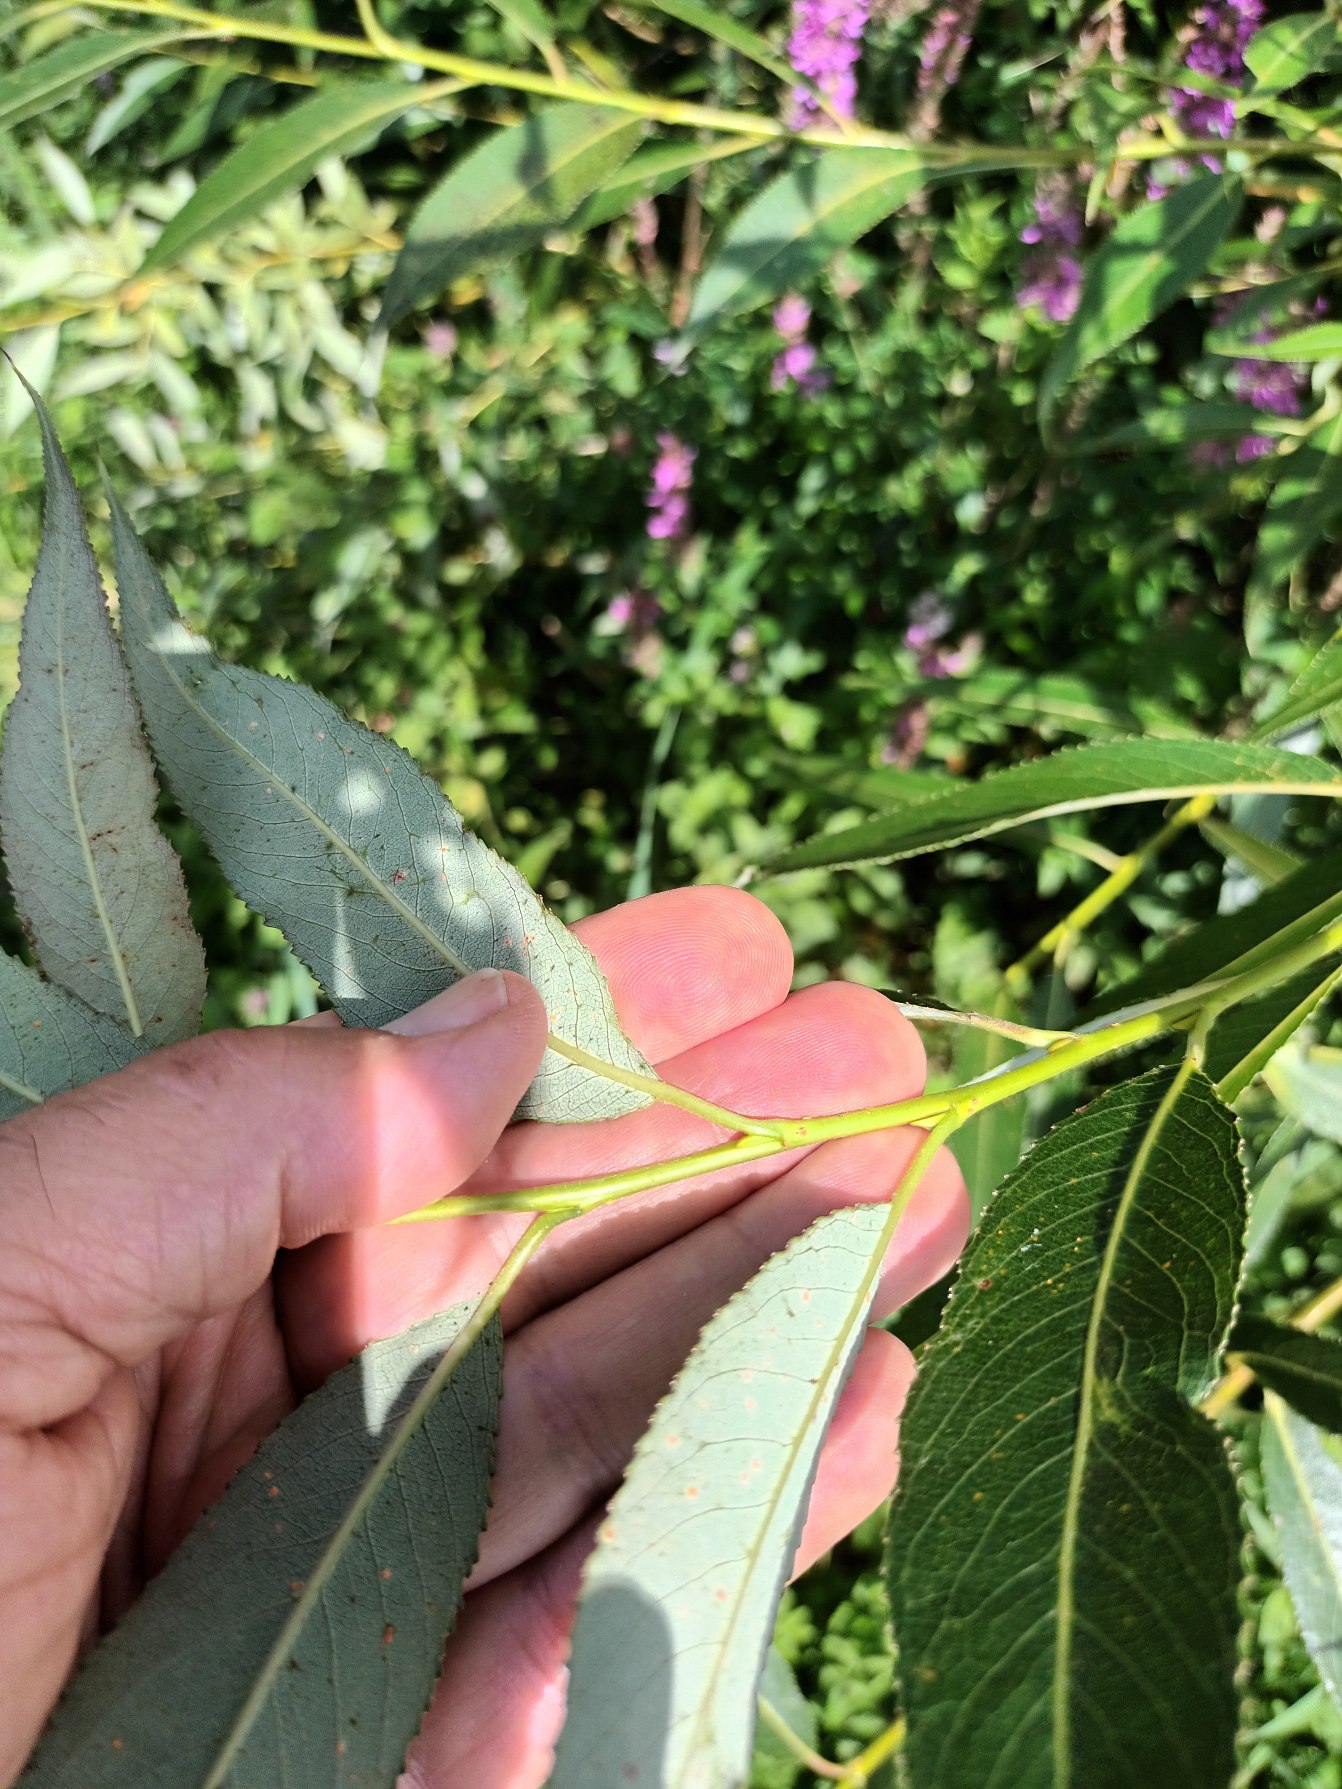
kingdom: Plantae
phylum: Tracheophyta
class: Magnoliopsida
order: Malpighiales
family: Salicaceae
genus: Salix
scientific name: Salix fragilis
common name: Grøn pil
